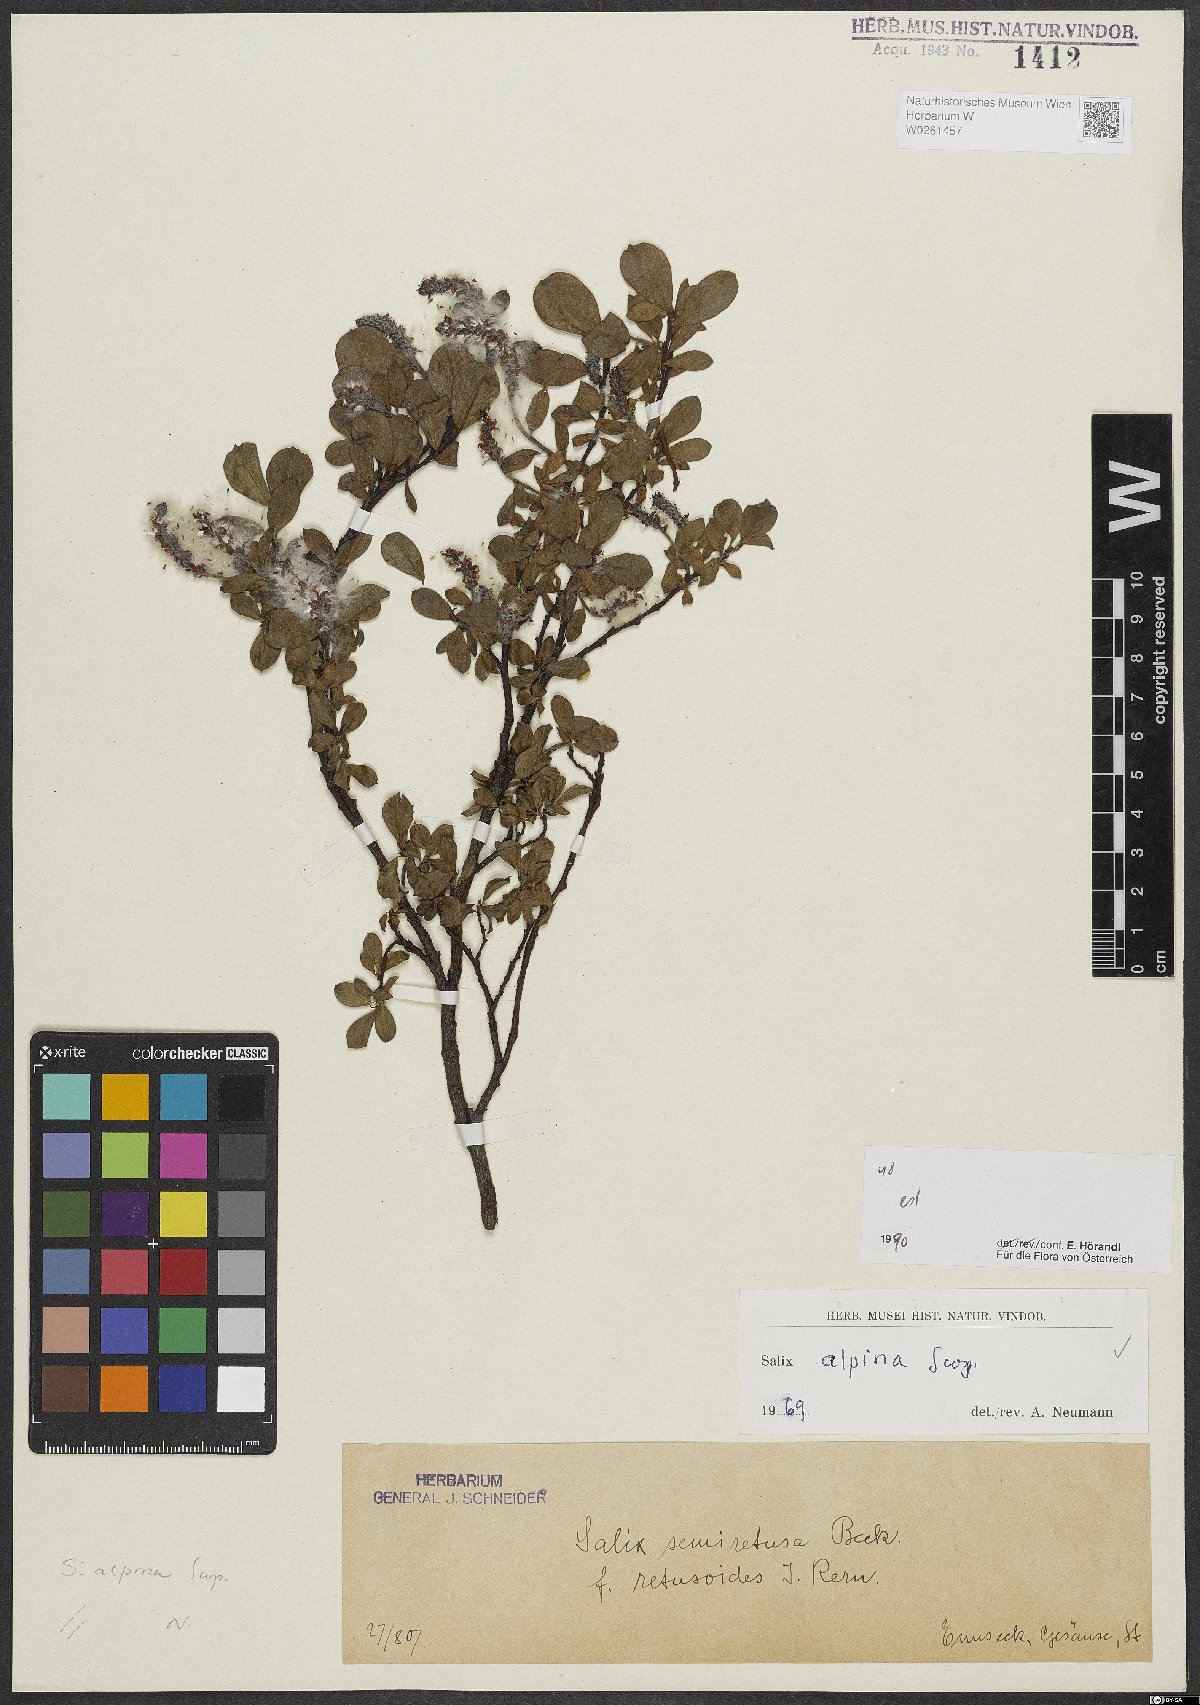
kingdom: Plantae
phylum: Tracheophyta
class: Magnoliopsida
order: Malpighiales
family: Salicaceae
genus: Salix
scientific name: Salix alpina
